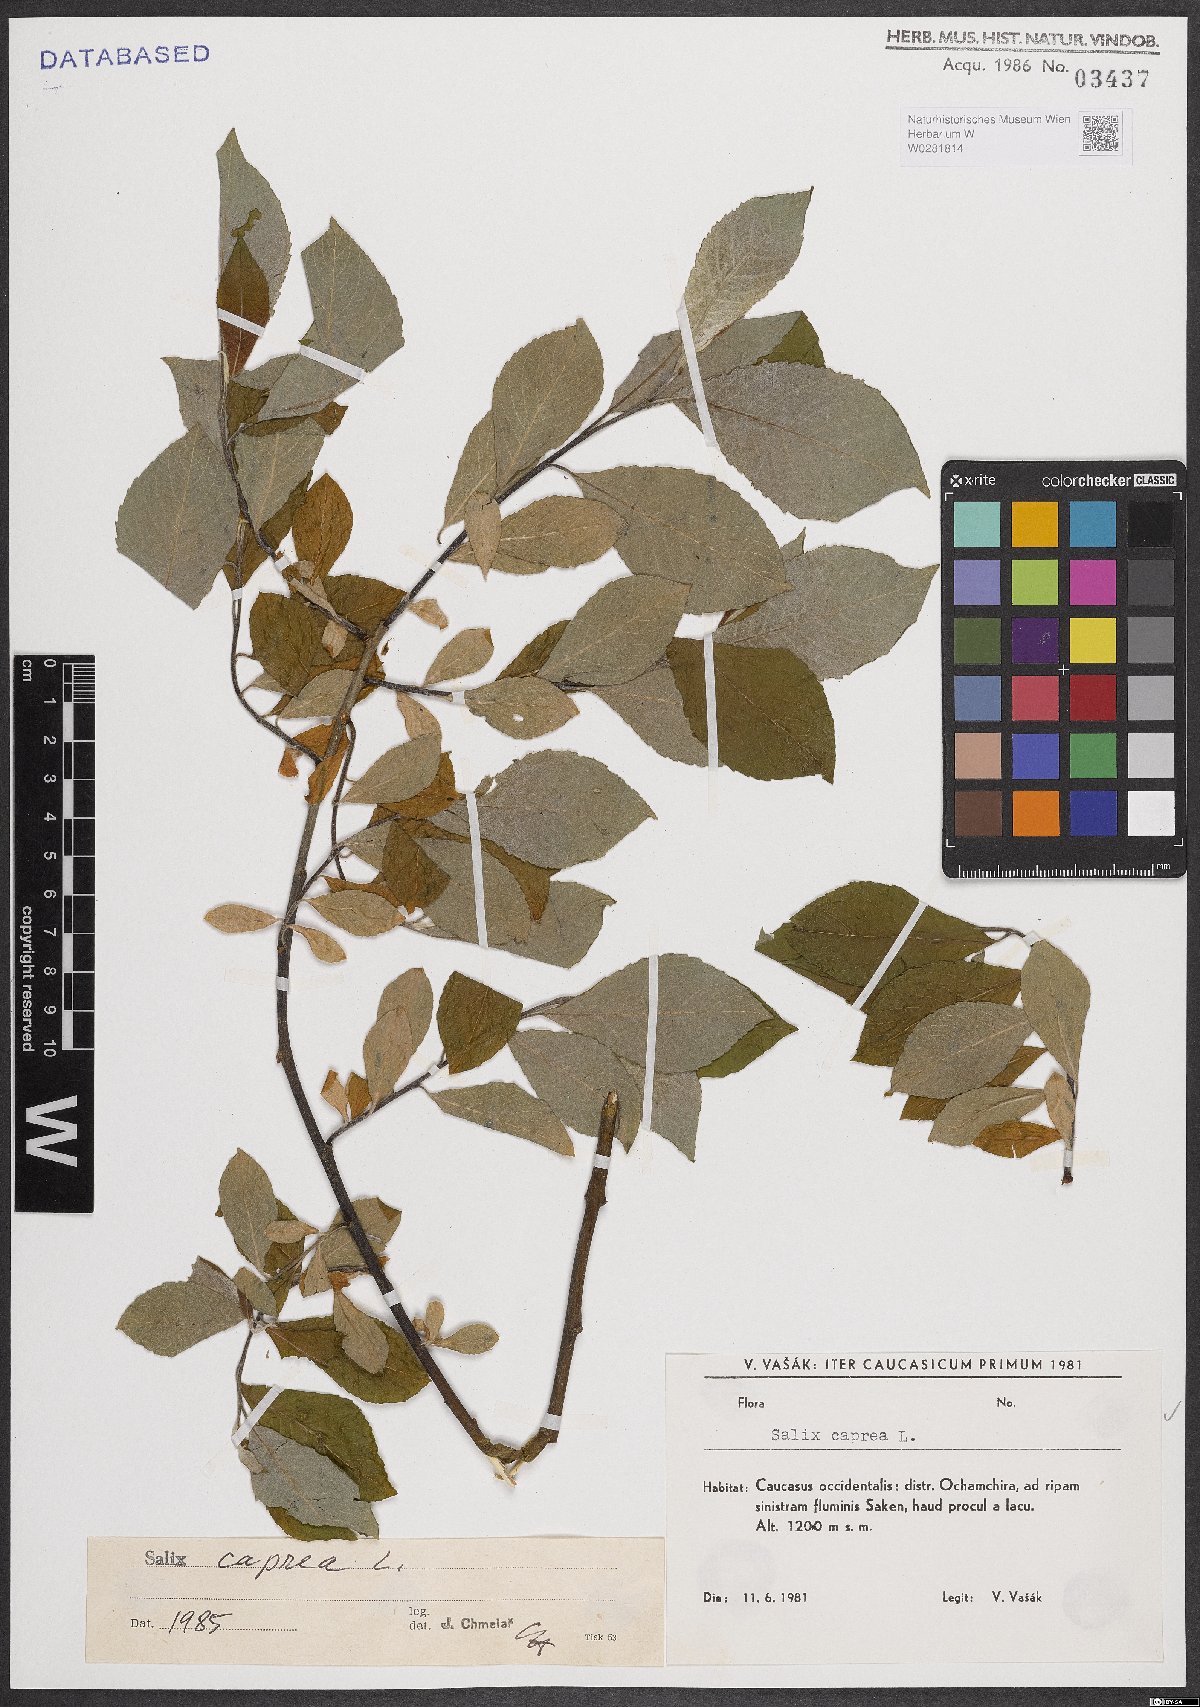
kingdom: Plantae
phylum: Tracheophyta
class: Magnoliopsida
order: Malpighiales
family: Salicaceae
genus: Salix
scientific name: Salix caprea
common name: Goat willow
